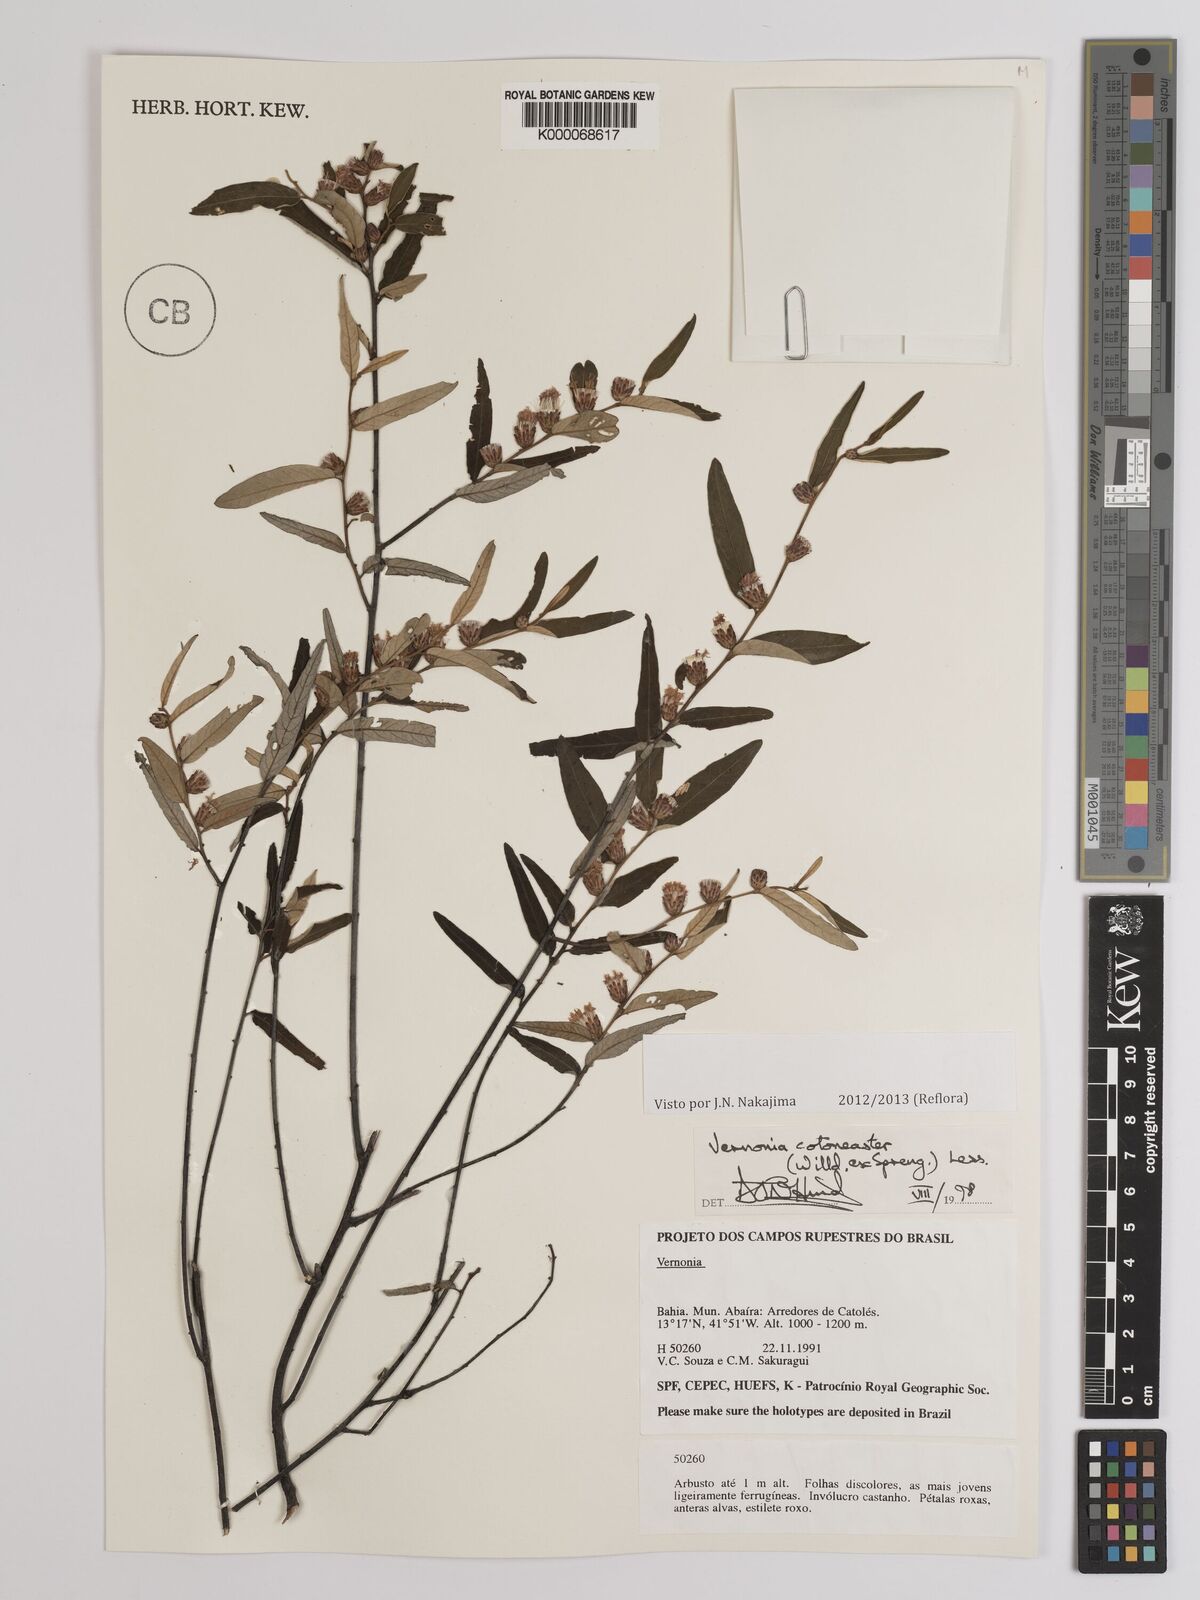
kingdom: Plantae
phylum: Tracheophyta
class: Magnoliopsida
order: Asterales
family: Asteraceae
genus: Lepidaploa
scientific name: Lepidaploa cotoneaster
